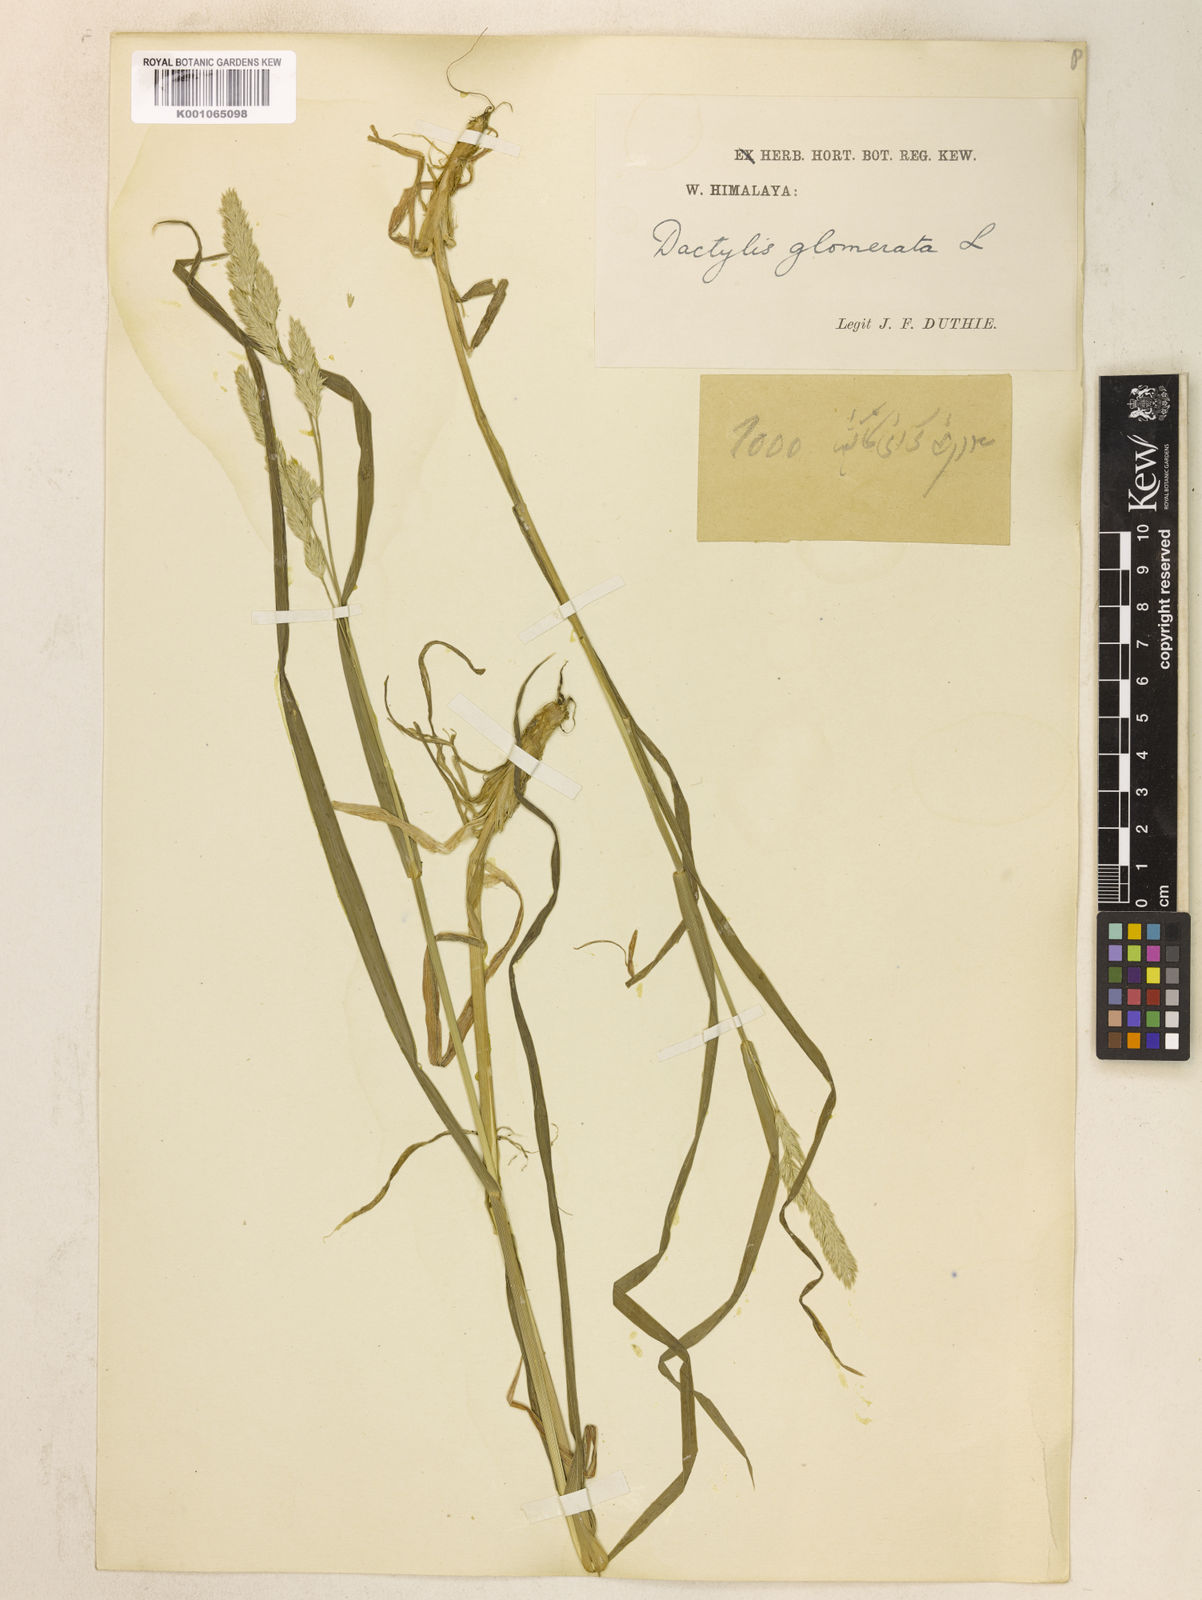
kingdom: Plantae
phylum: Tracheophyta
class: Liliopsida
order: Poales
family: Poaceae
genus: Dactylis
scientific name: Dactylis glomerata
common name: Orchardgrass
